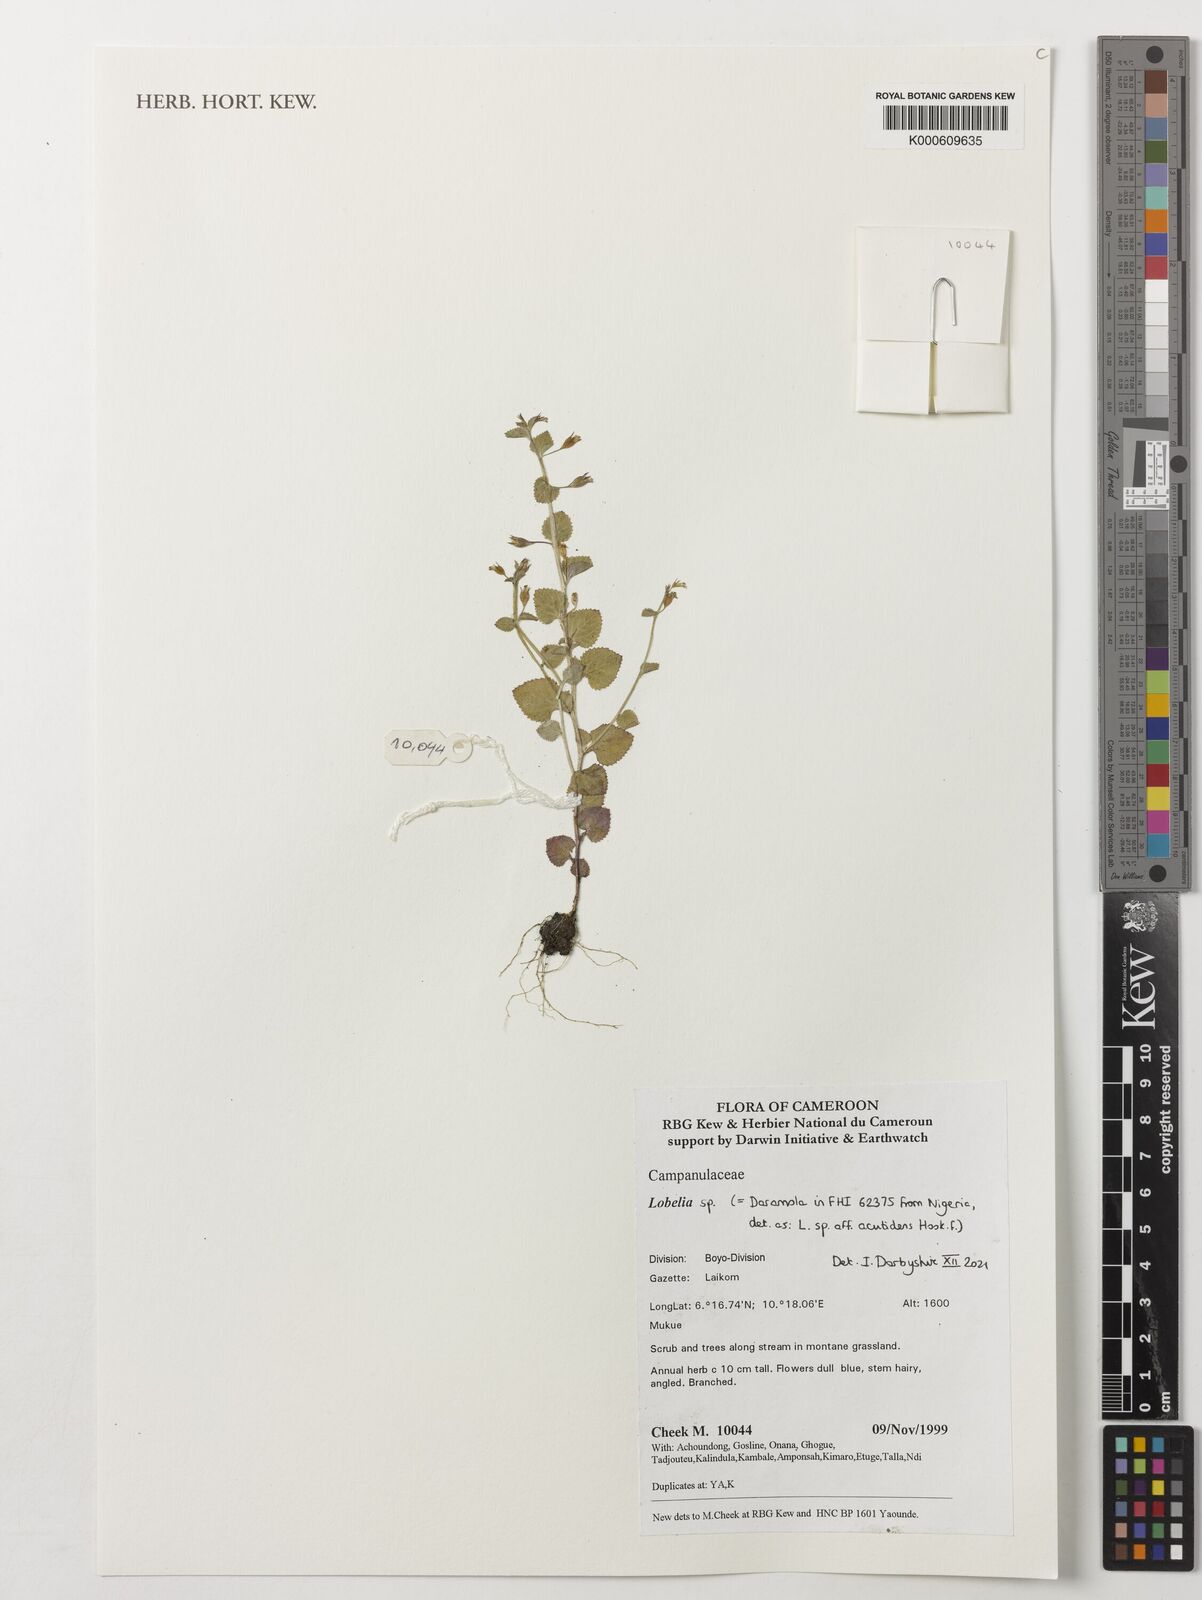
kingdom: Plantae
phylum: Tracheophyta
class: Magnoliopsida
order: Asterales
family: Campanulaceae
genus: Lobelia
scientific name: Lobelia
